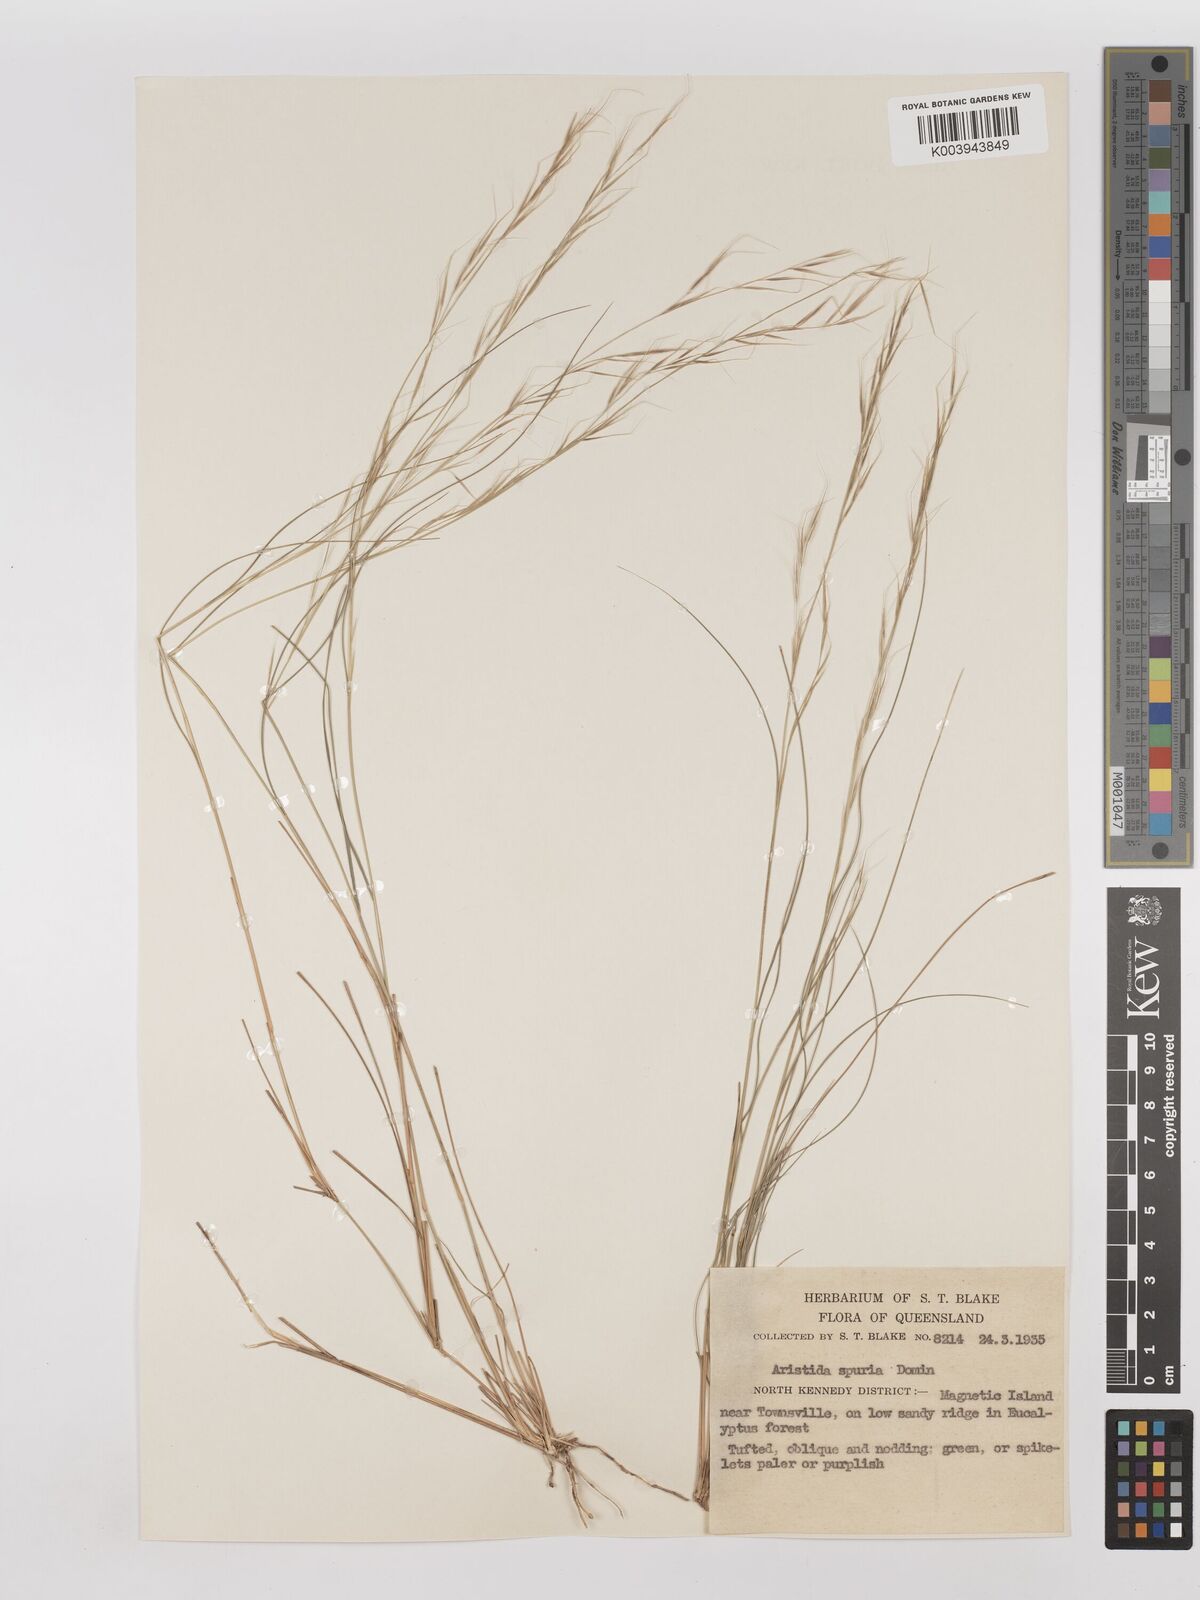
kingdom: Plantae
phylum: Tracheophyta
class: Liliopsida
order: Poales
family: Poaceae
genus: Aristida
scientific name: Aristida spuria
